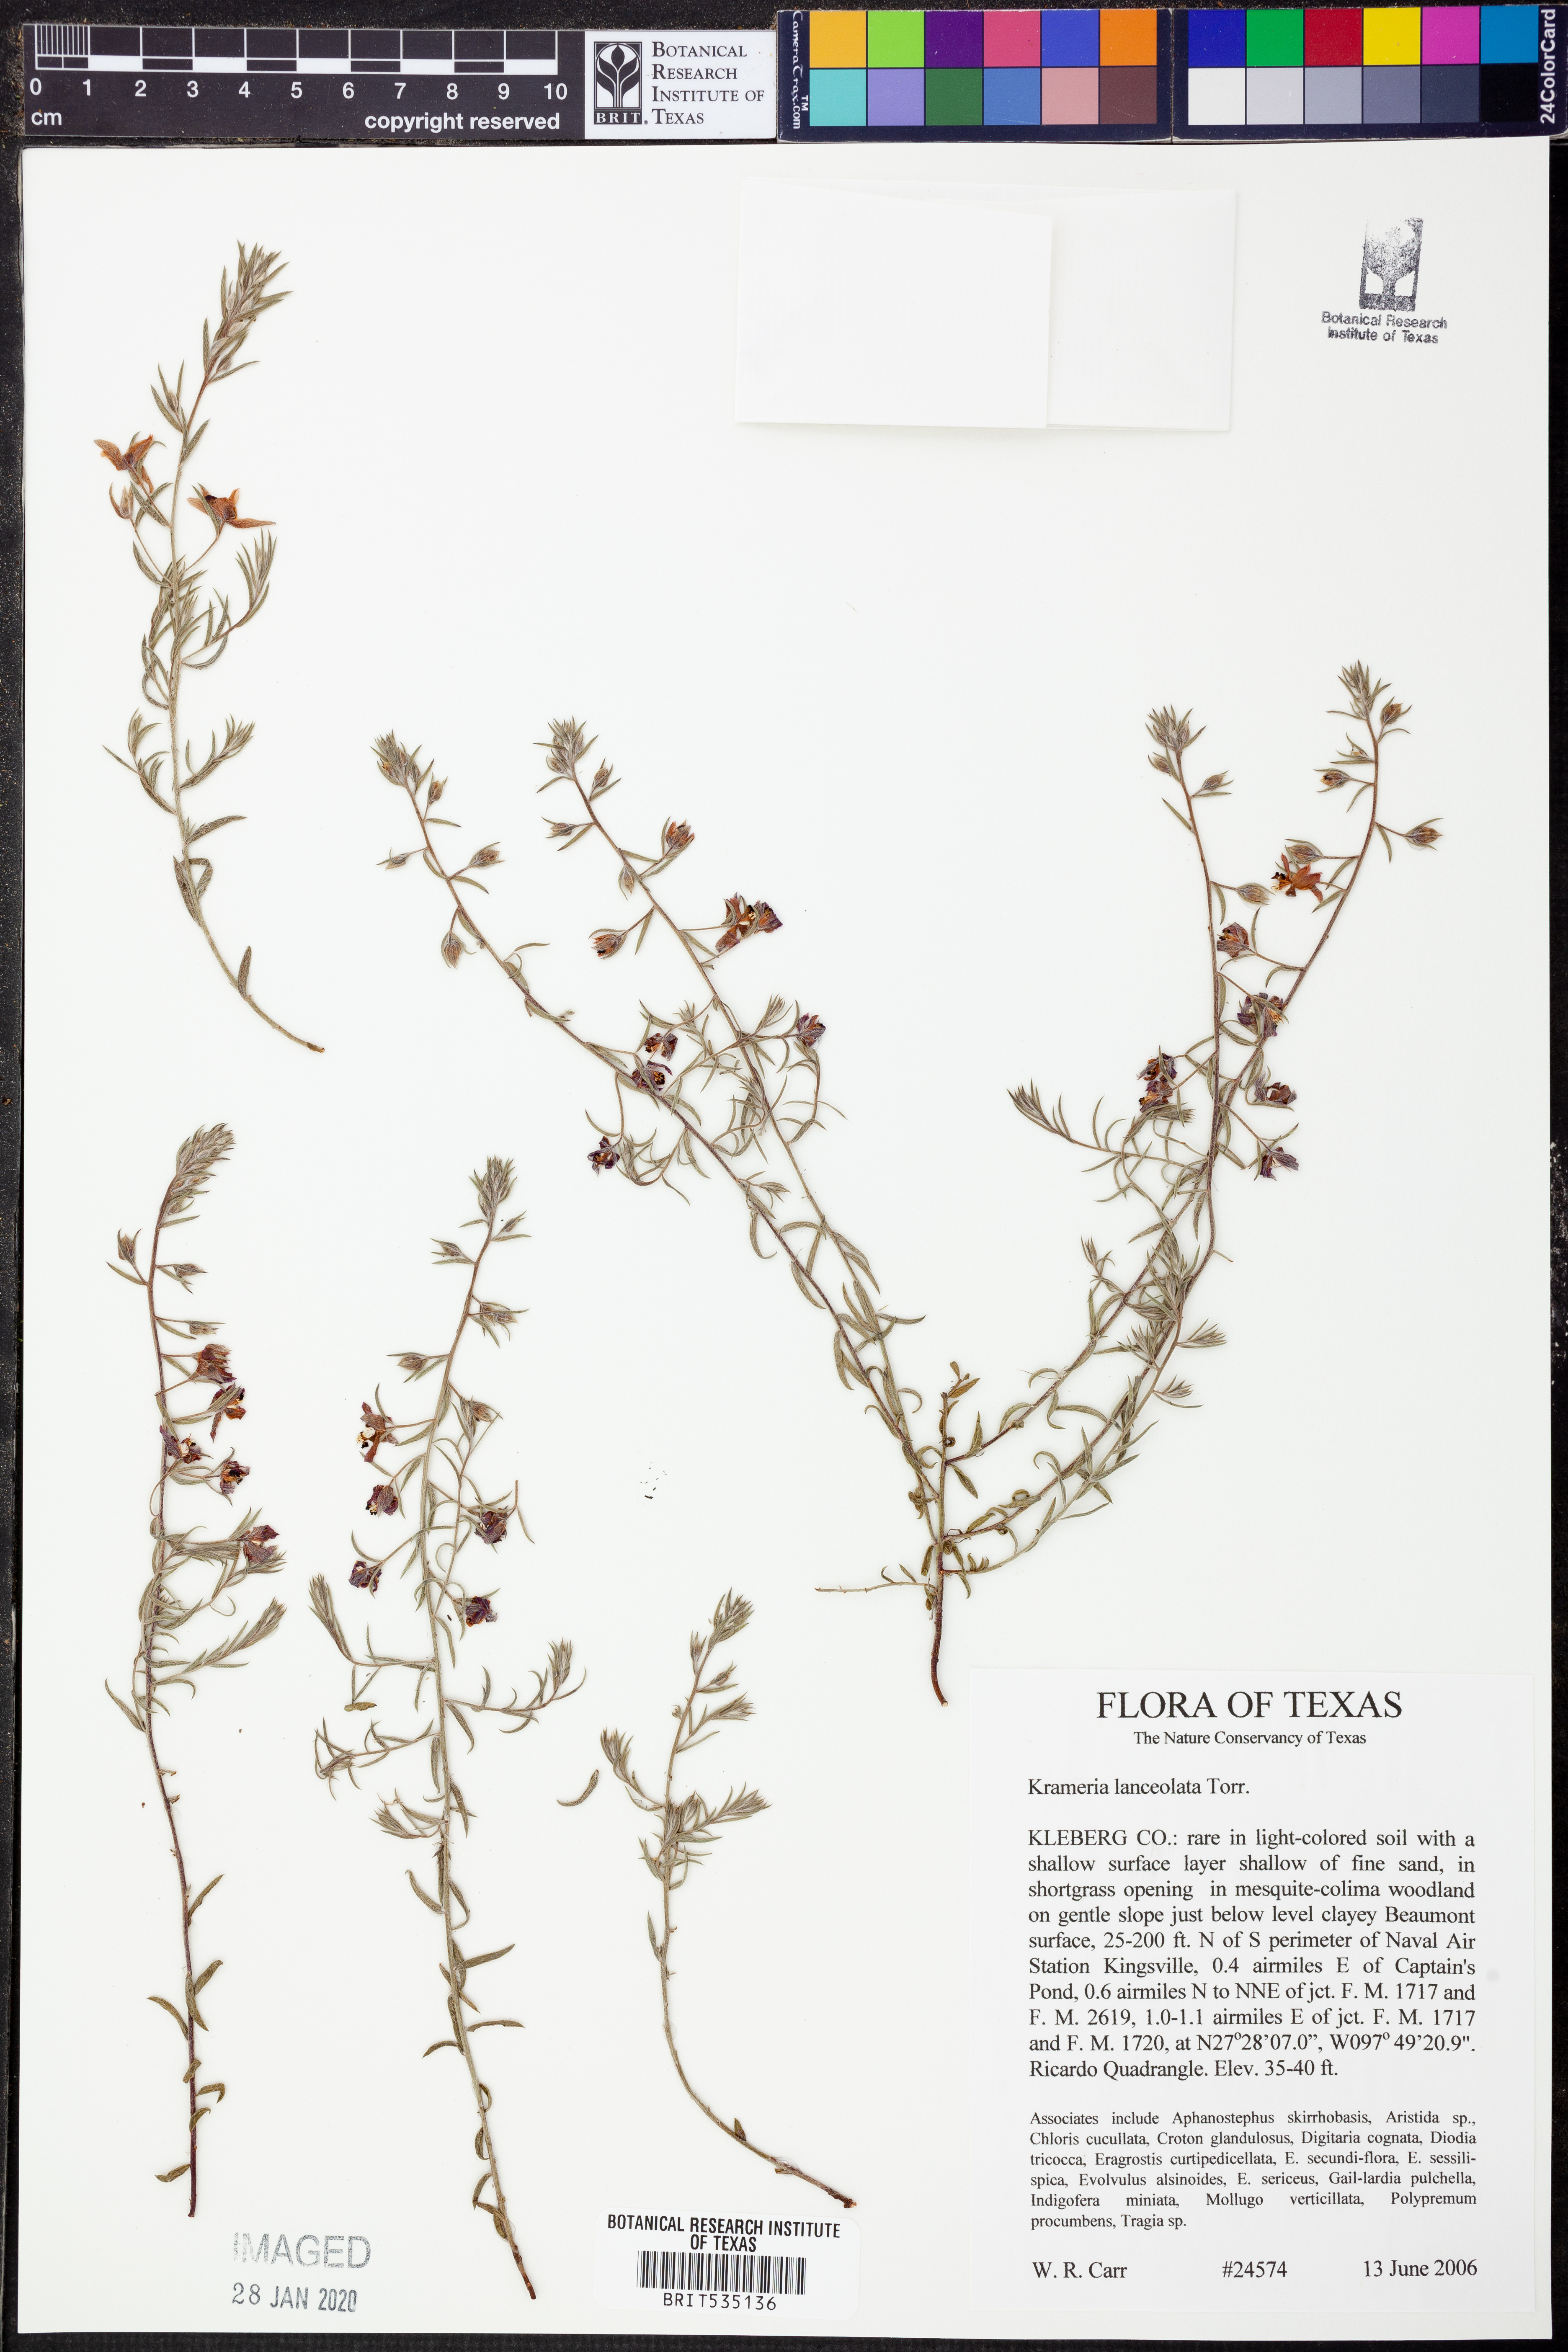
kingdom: Plantae
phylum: Tracheophyta
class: Magnoliopsida
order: Zygophyllales
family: Krameriaceae
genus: Krameria
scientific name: Krameria lanceolata
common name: Ratany
